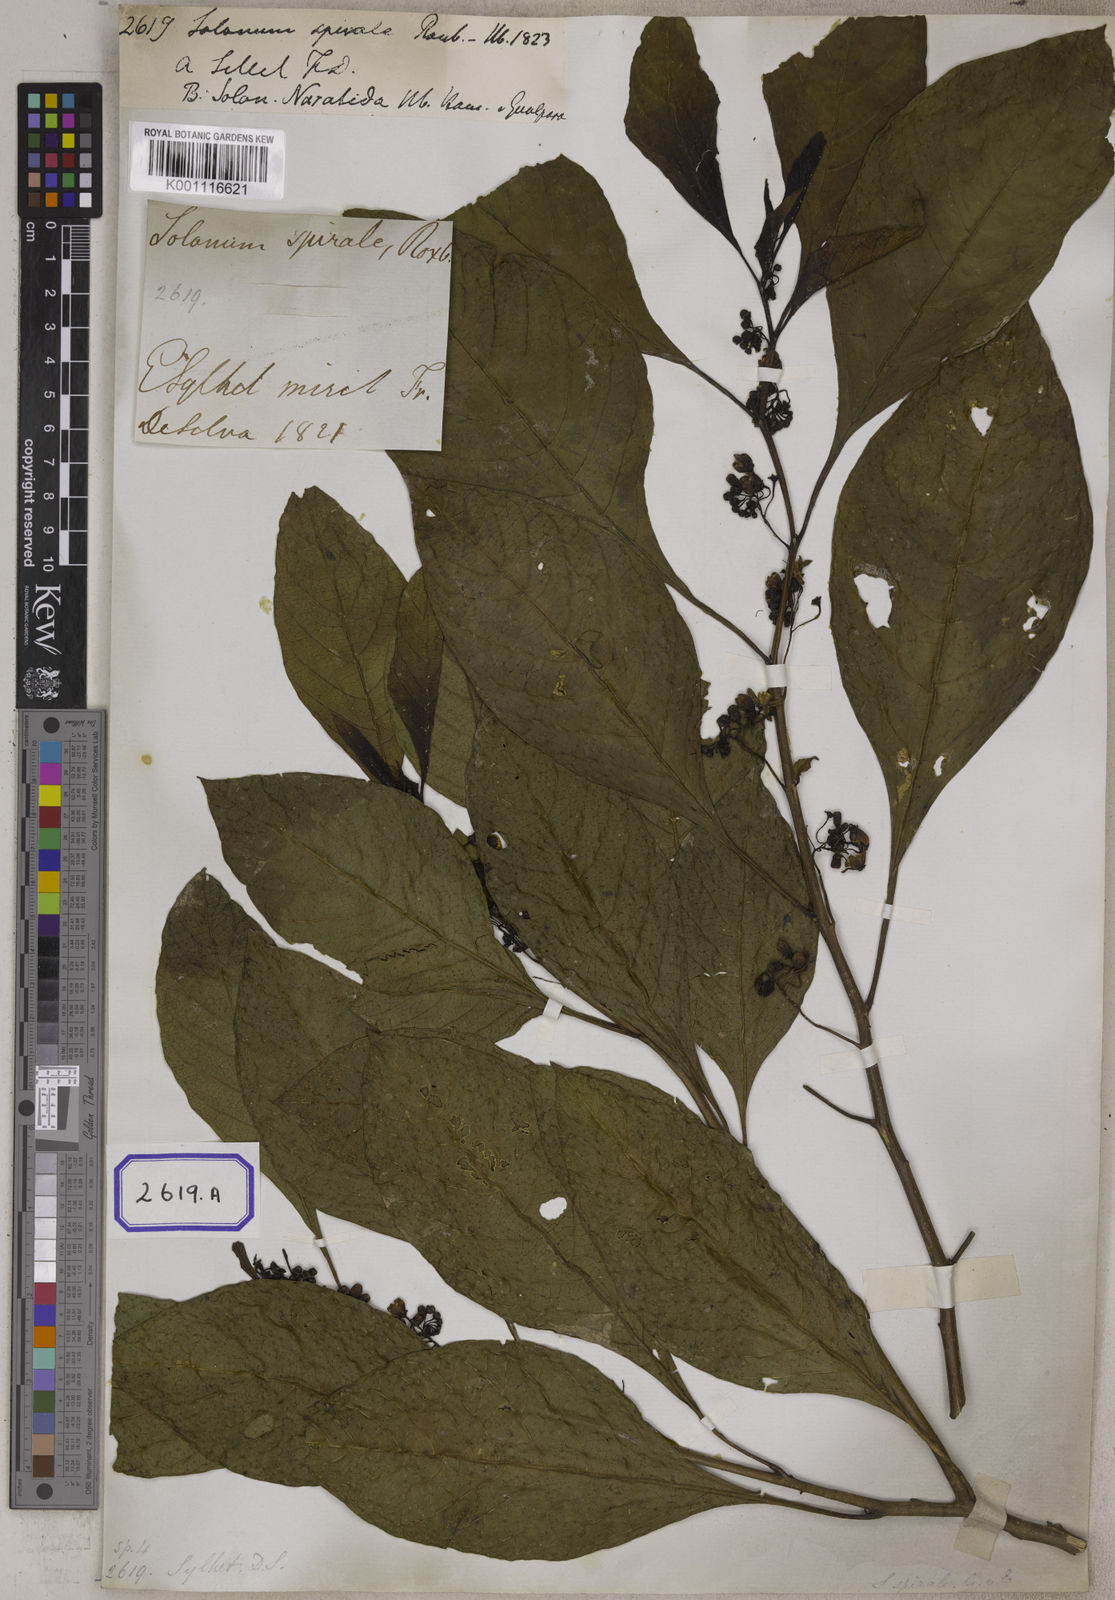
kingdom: Plantae
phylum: Tracheophyta
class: Magnoliopsida
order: Solanales
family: Solanaceae
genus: Solanum
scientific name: Solanum spirale
